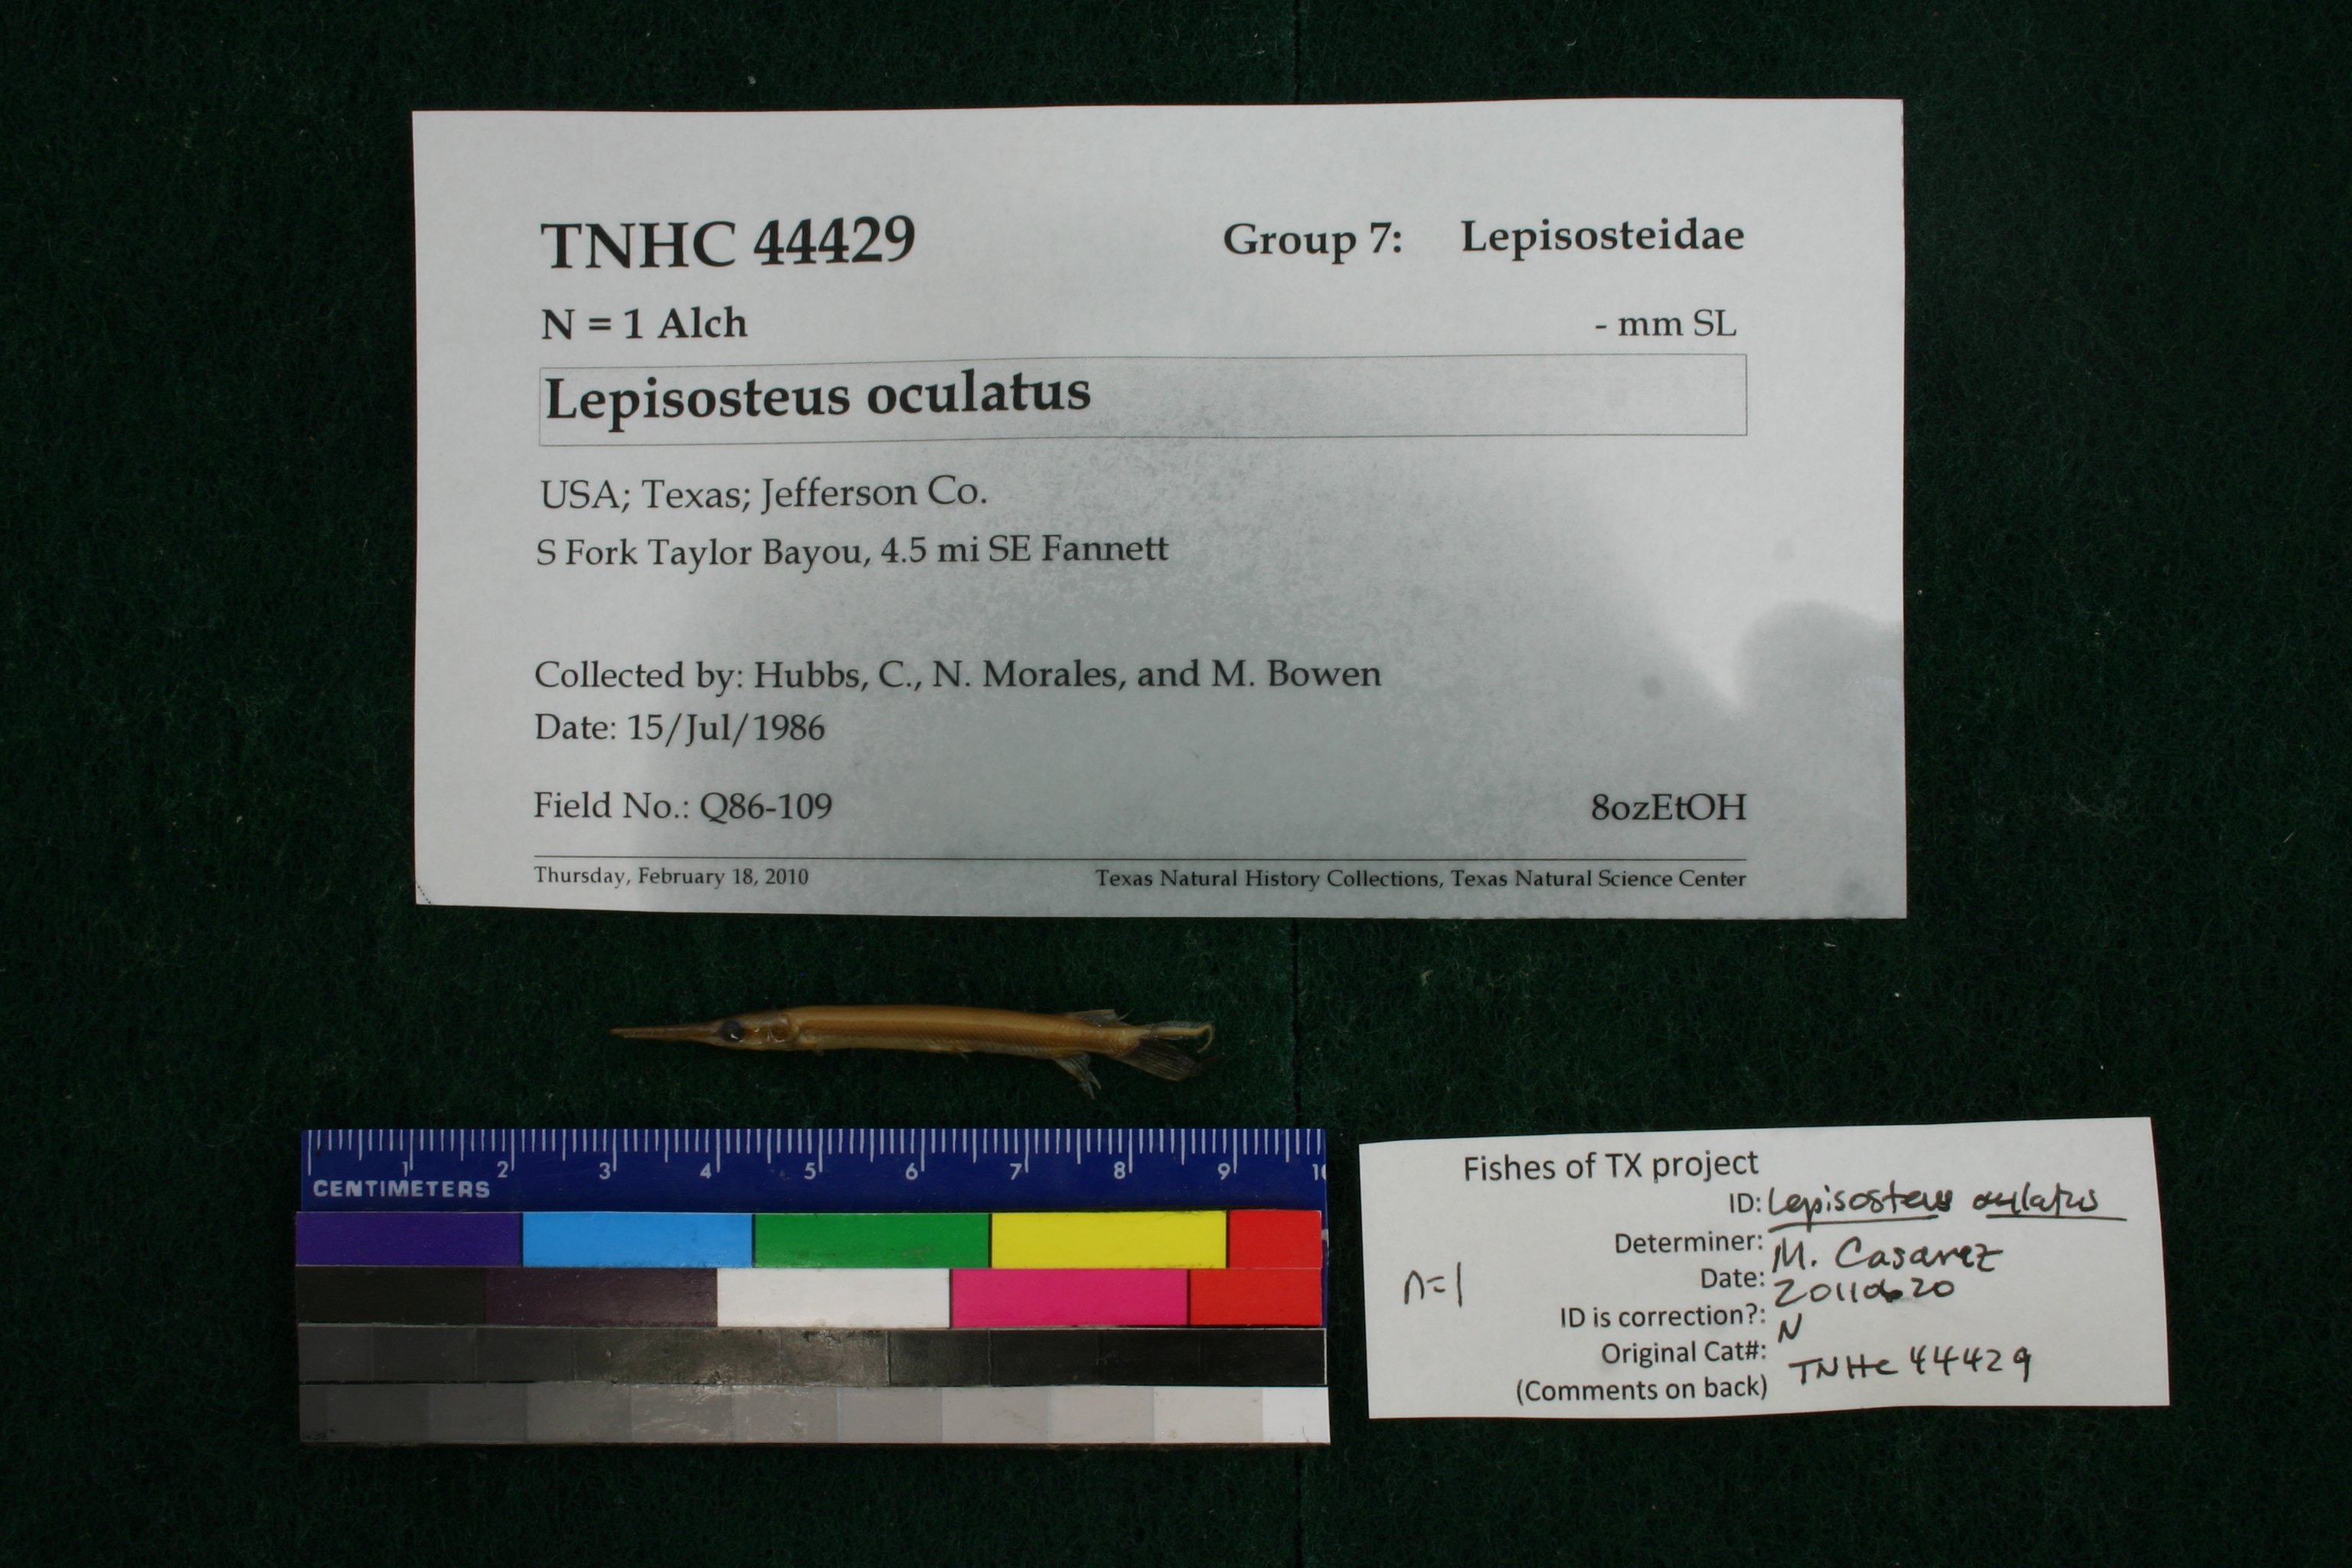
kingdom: Animalia
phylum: Chordata
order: Lepisosteiformes
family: Lepisosteidae
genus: Lepisosteus
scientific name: Lepisosteus oculatus
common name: Spotted gar
